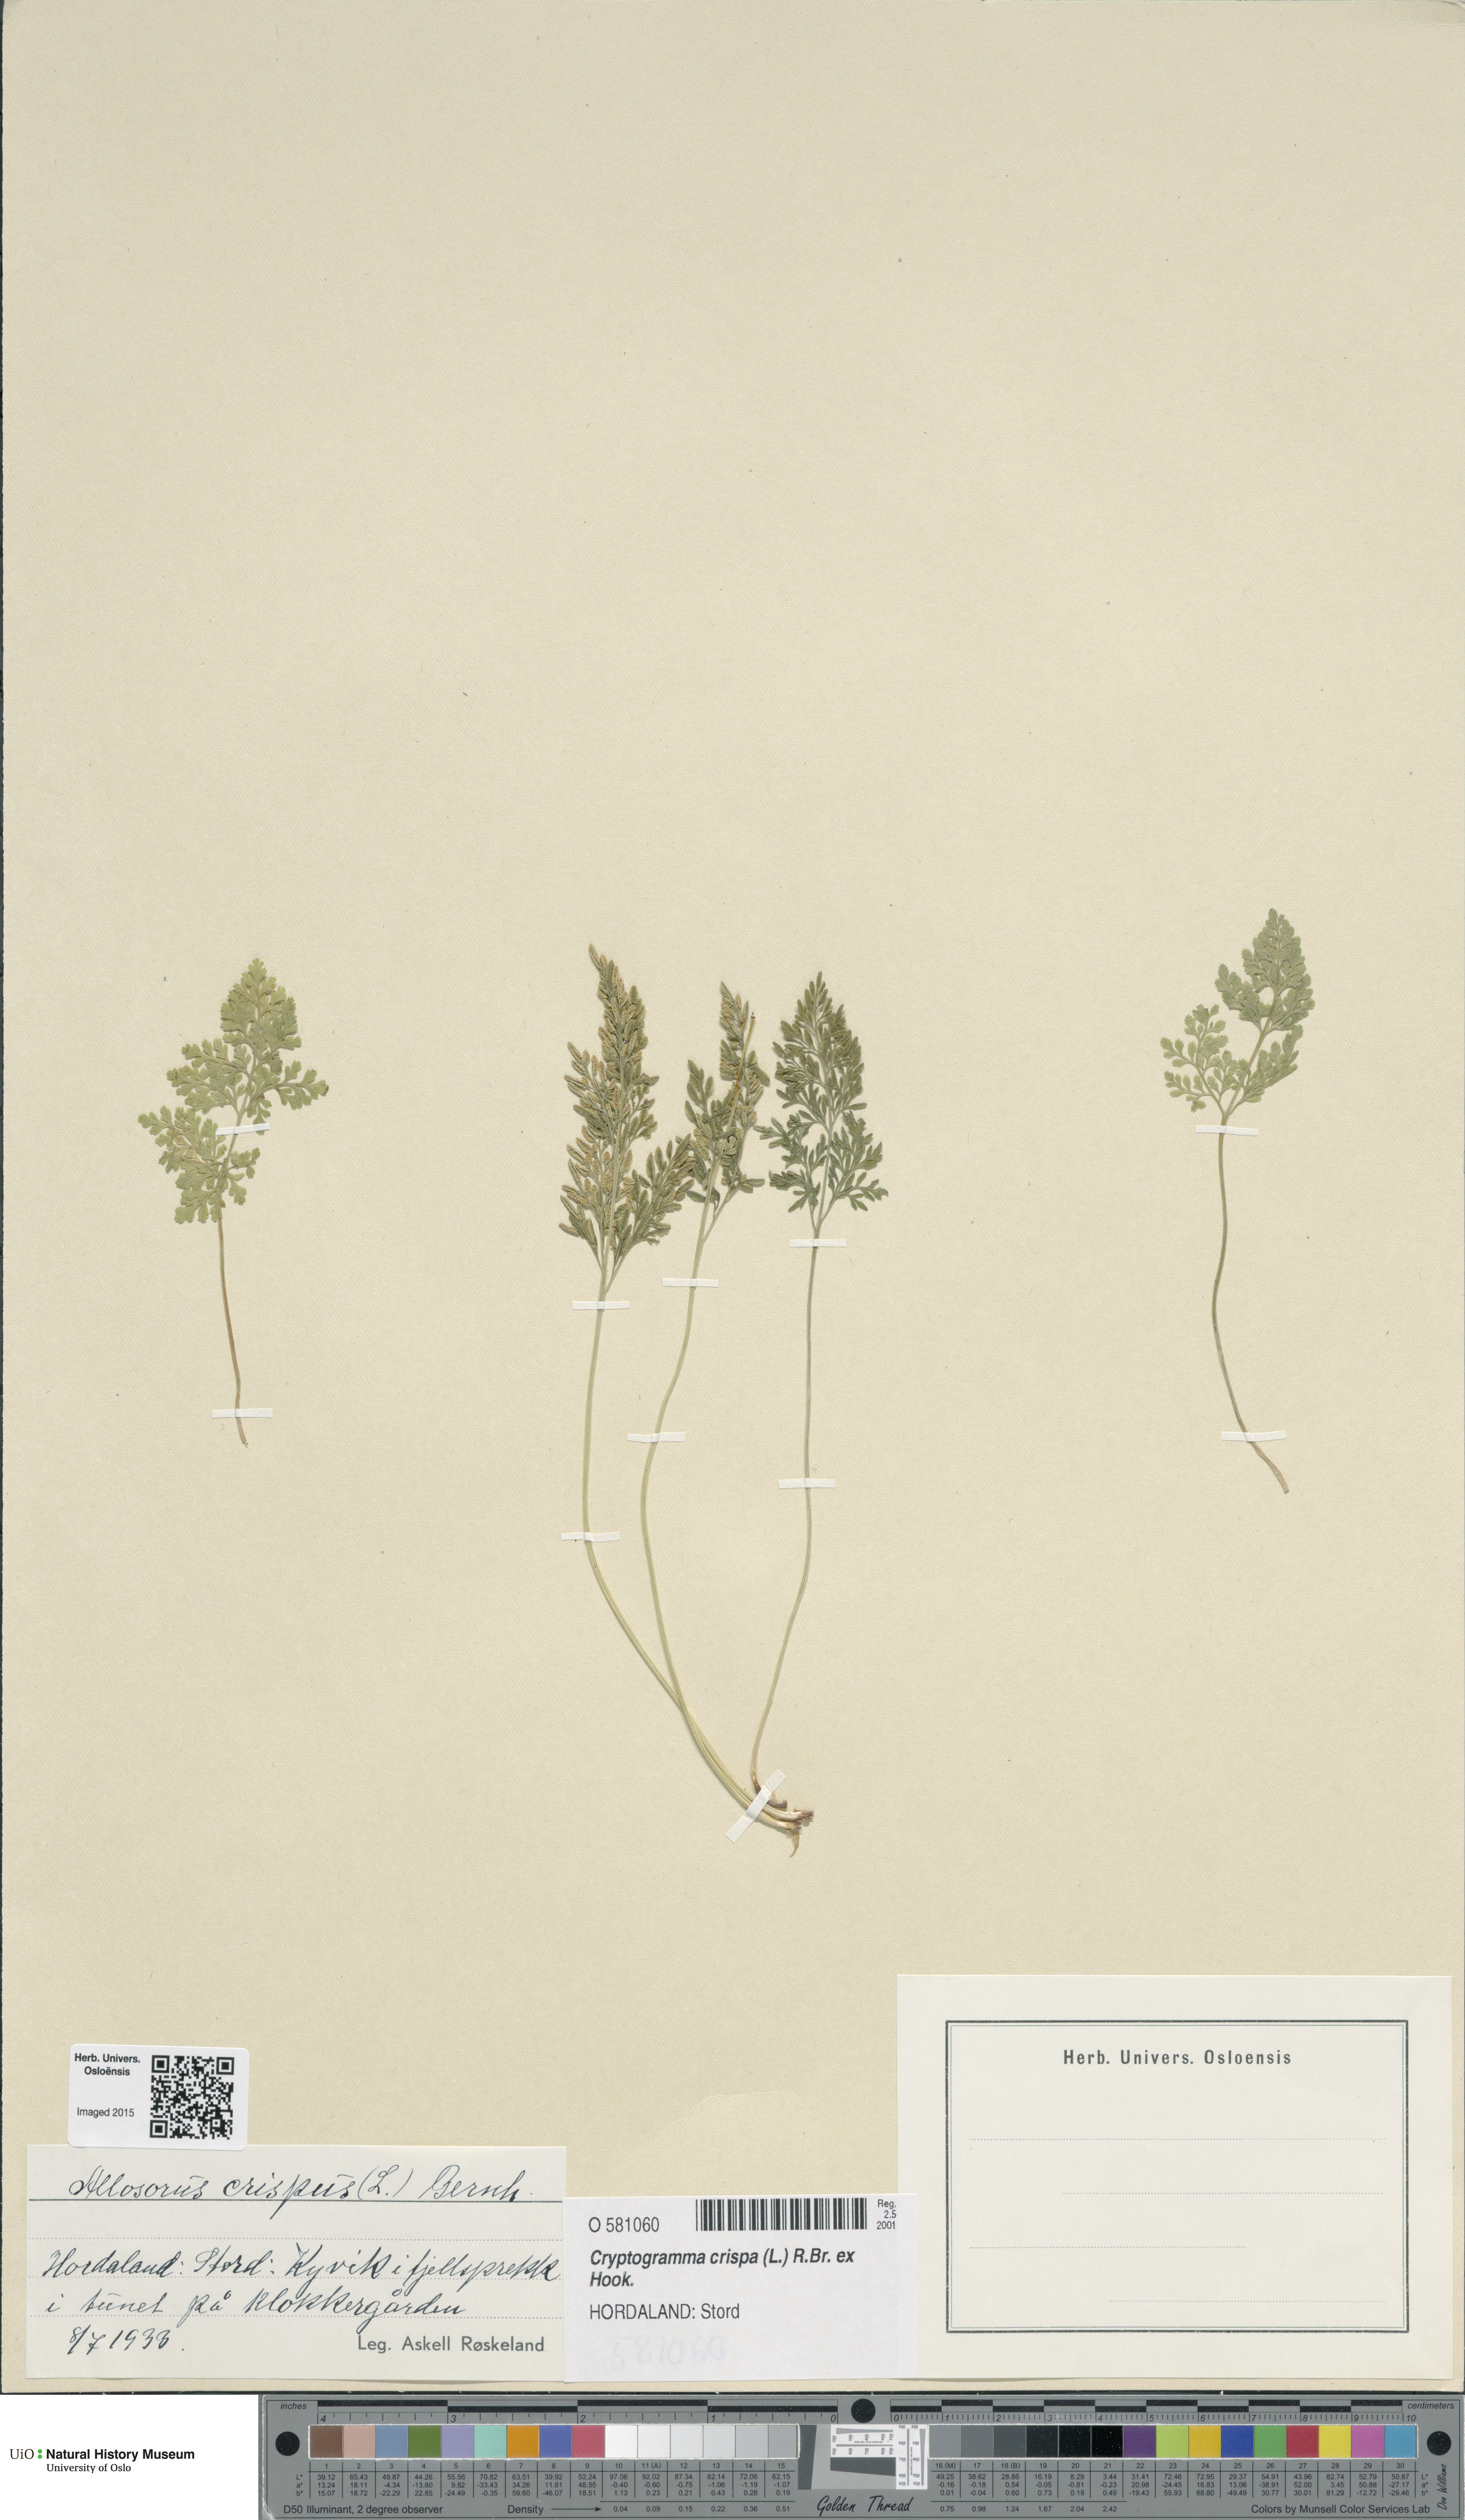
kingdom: Plantae
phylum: Tracheophyta
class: Polypodiopsida
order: Polypodiales
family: Pteridaceae
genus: Cryptogramma
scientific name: Cryptogramma crispa
